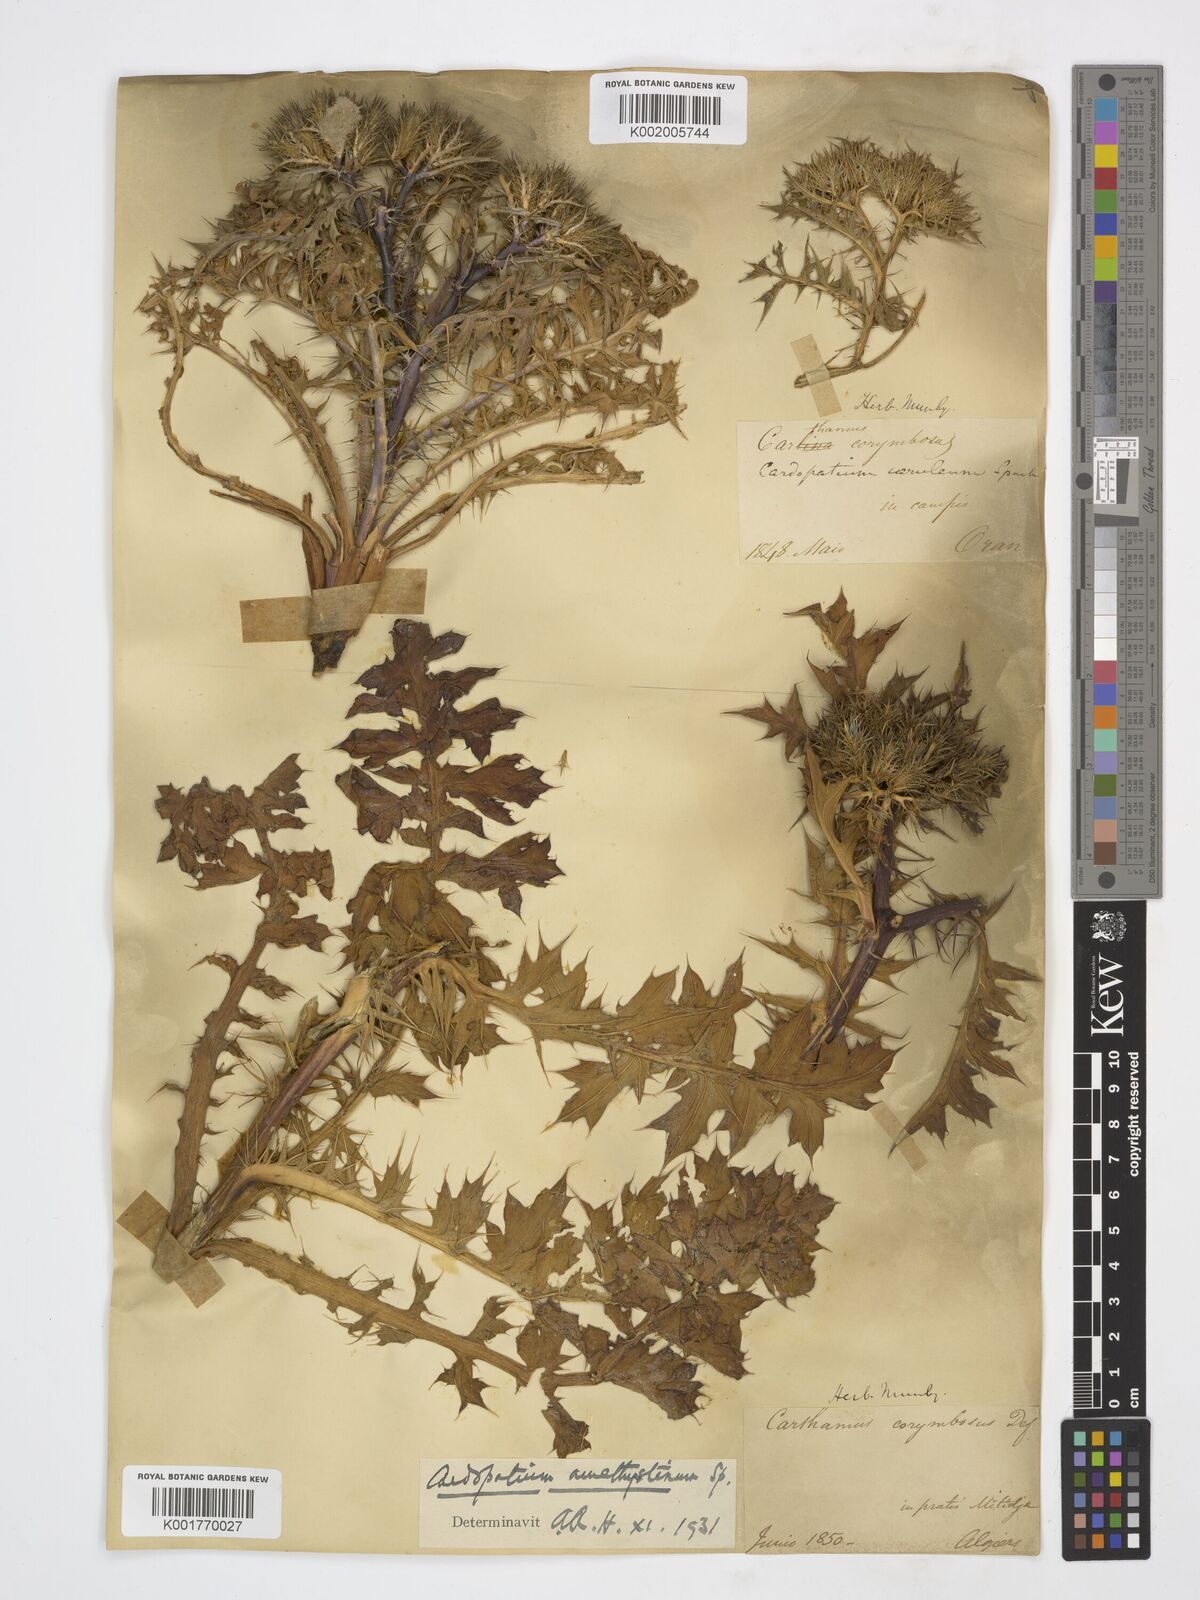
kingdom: Plantae
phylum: Tracheophyta
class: Magnoliopsida
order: Asterales
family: Asteraceae
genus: Cardopatium
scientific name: Cardopatium amethystinum
